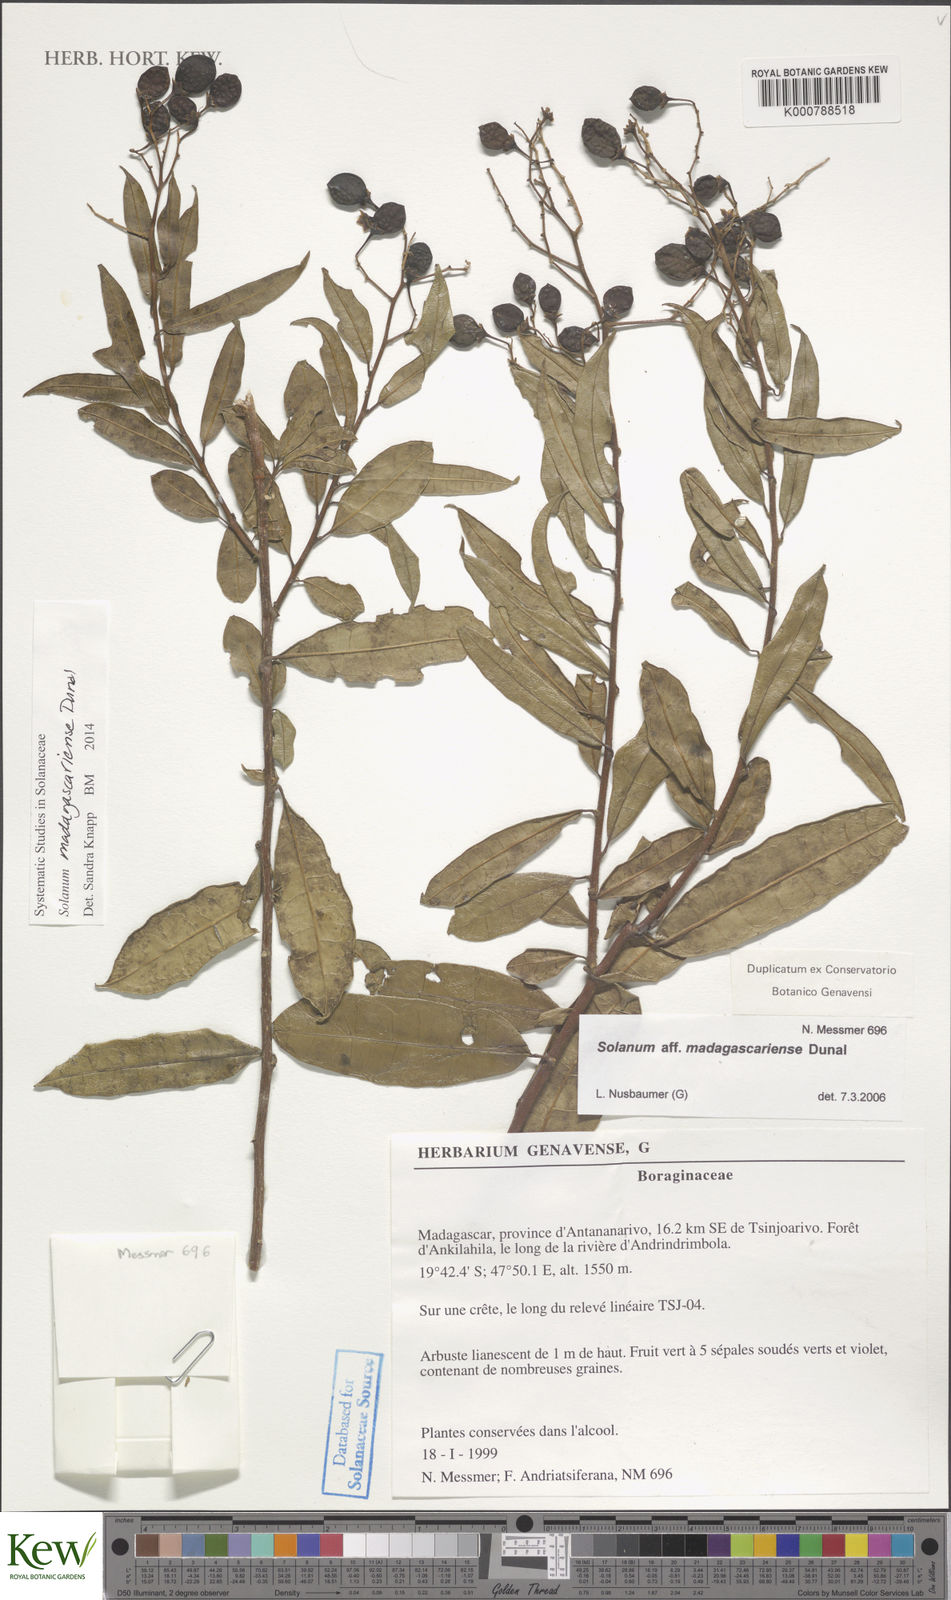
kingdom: Plantae
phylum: Tracheophyta
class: Magnoliopsida
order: Solanales
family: Solanaceae
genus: Solanum
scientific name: Solanum madagascariense
